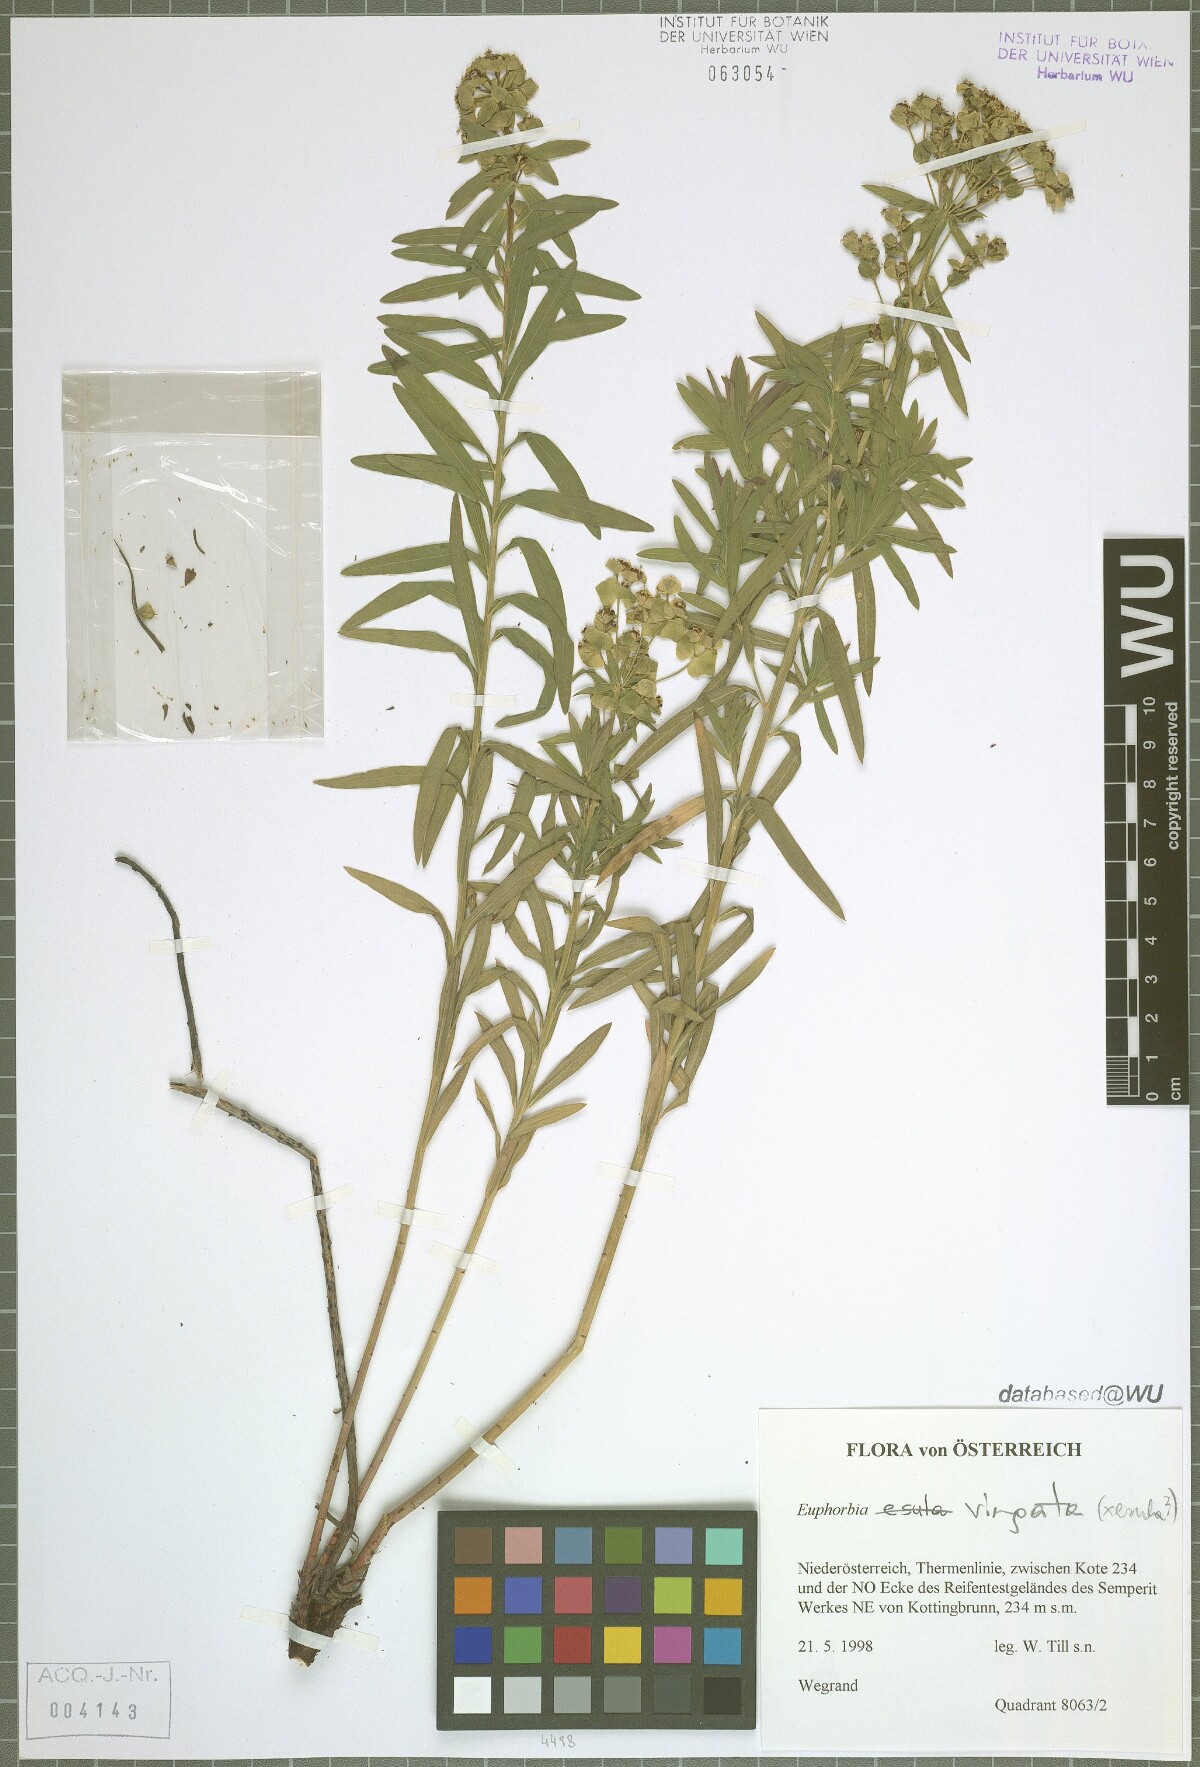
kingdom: Plantae
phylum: Tracheophyta
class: Magnoliopsida
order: Malpighiales
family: Euphorbiaceae
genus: Euphorbia
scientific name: Euphorbia saratoi
